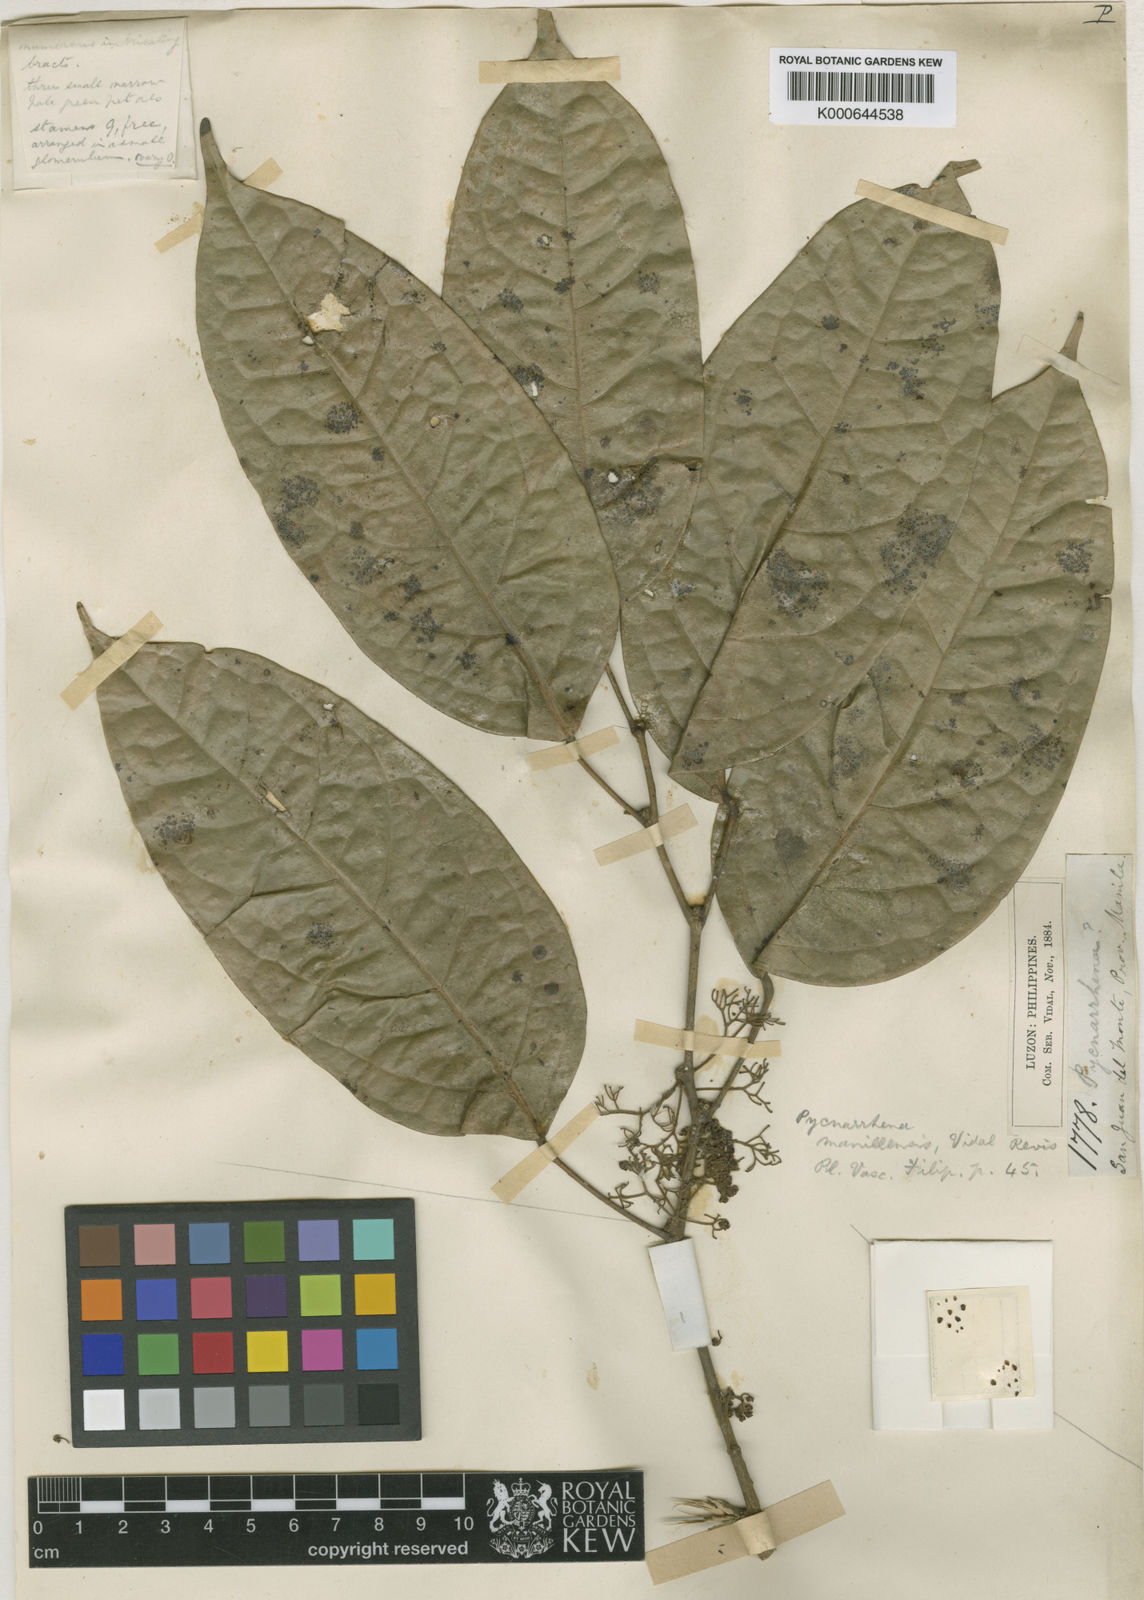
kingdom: Plantae
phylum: Tracheophyta
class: Magnoliopsida
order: Ranunculales
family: Menispermaceae
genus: Pycnarrhena
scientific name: Pycnarrhena manillensis
